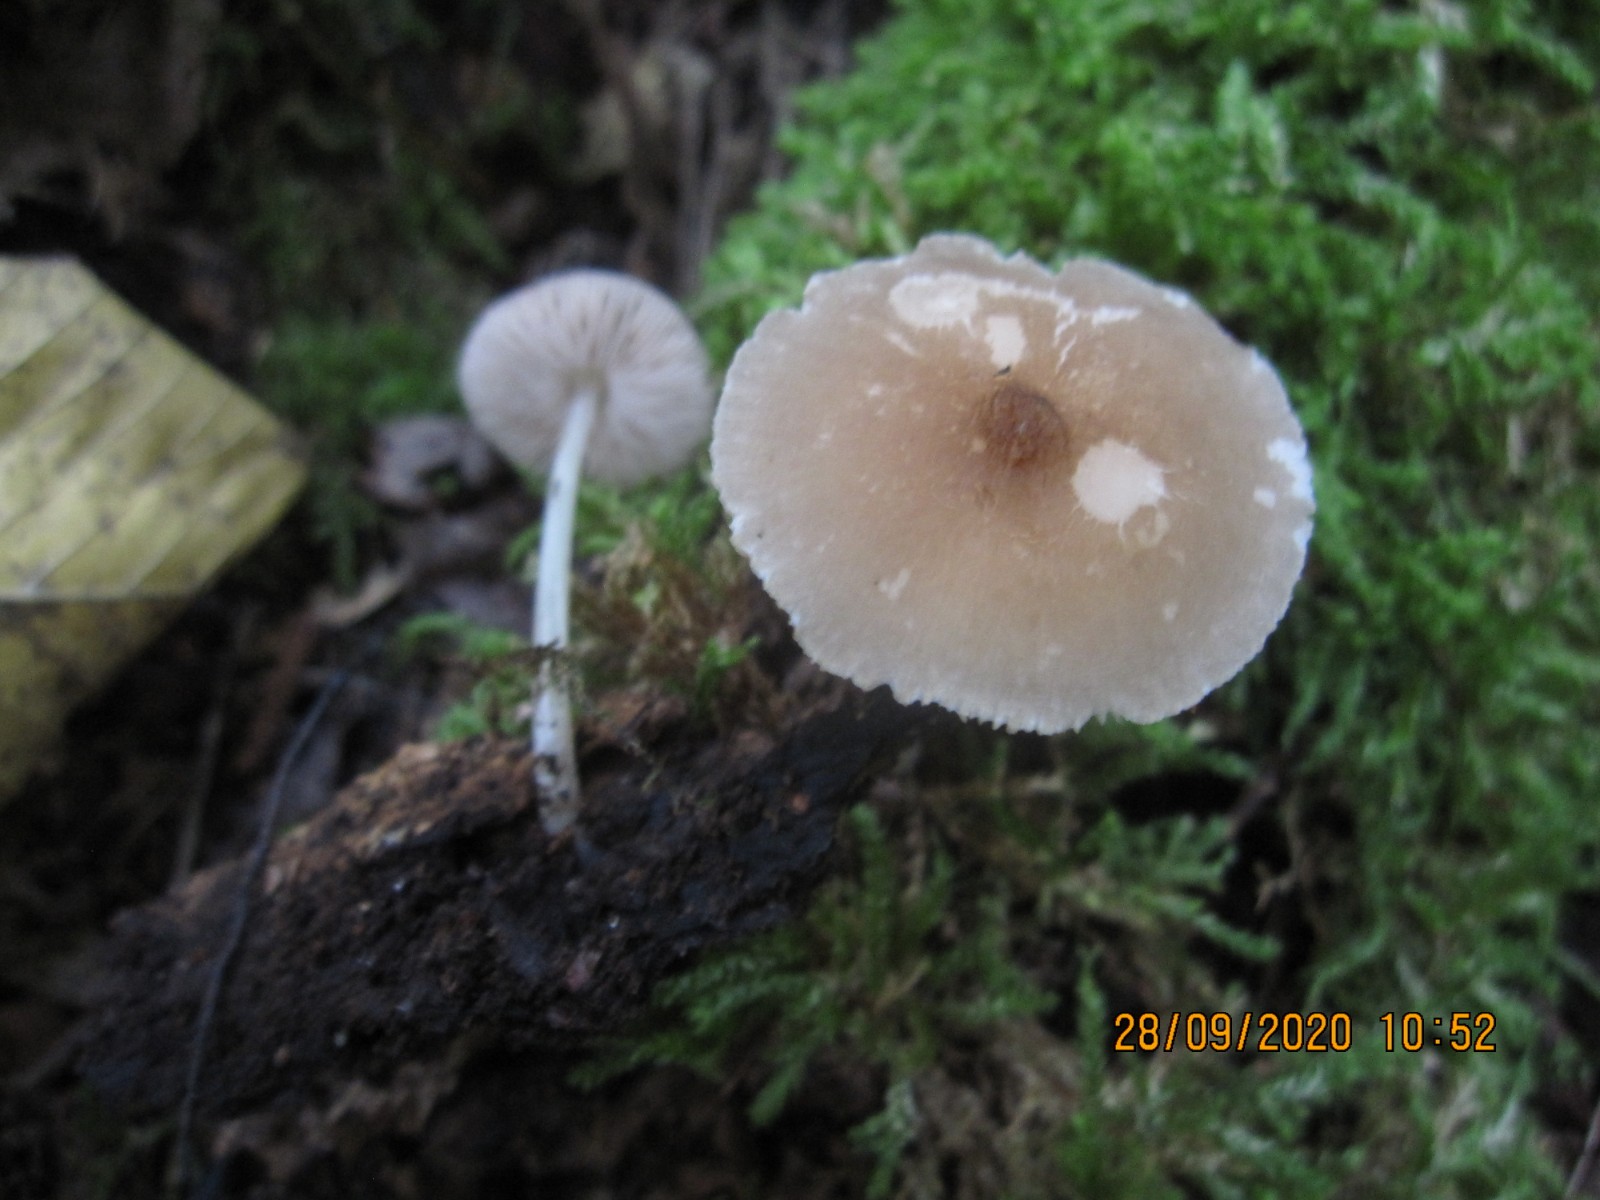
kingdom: Fungi
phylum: Basidiomycota
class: Agaricomycetes
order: Agaricales
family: Pluteaceae
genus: Pluteus
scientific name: Pluteus phlebophorus
